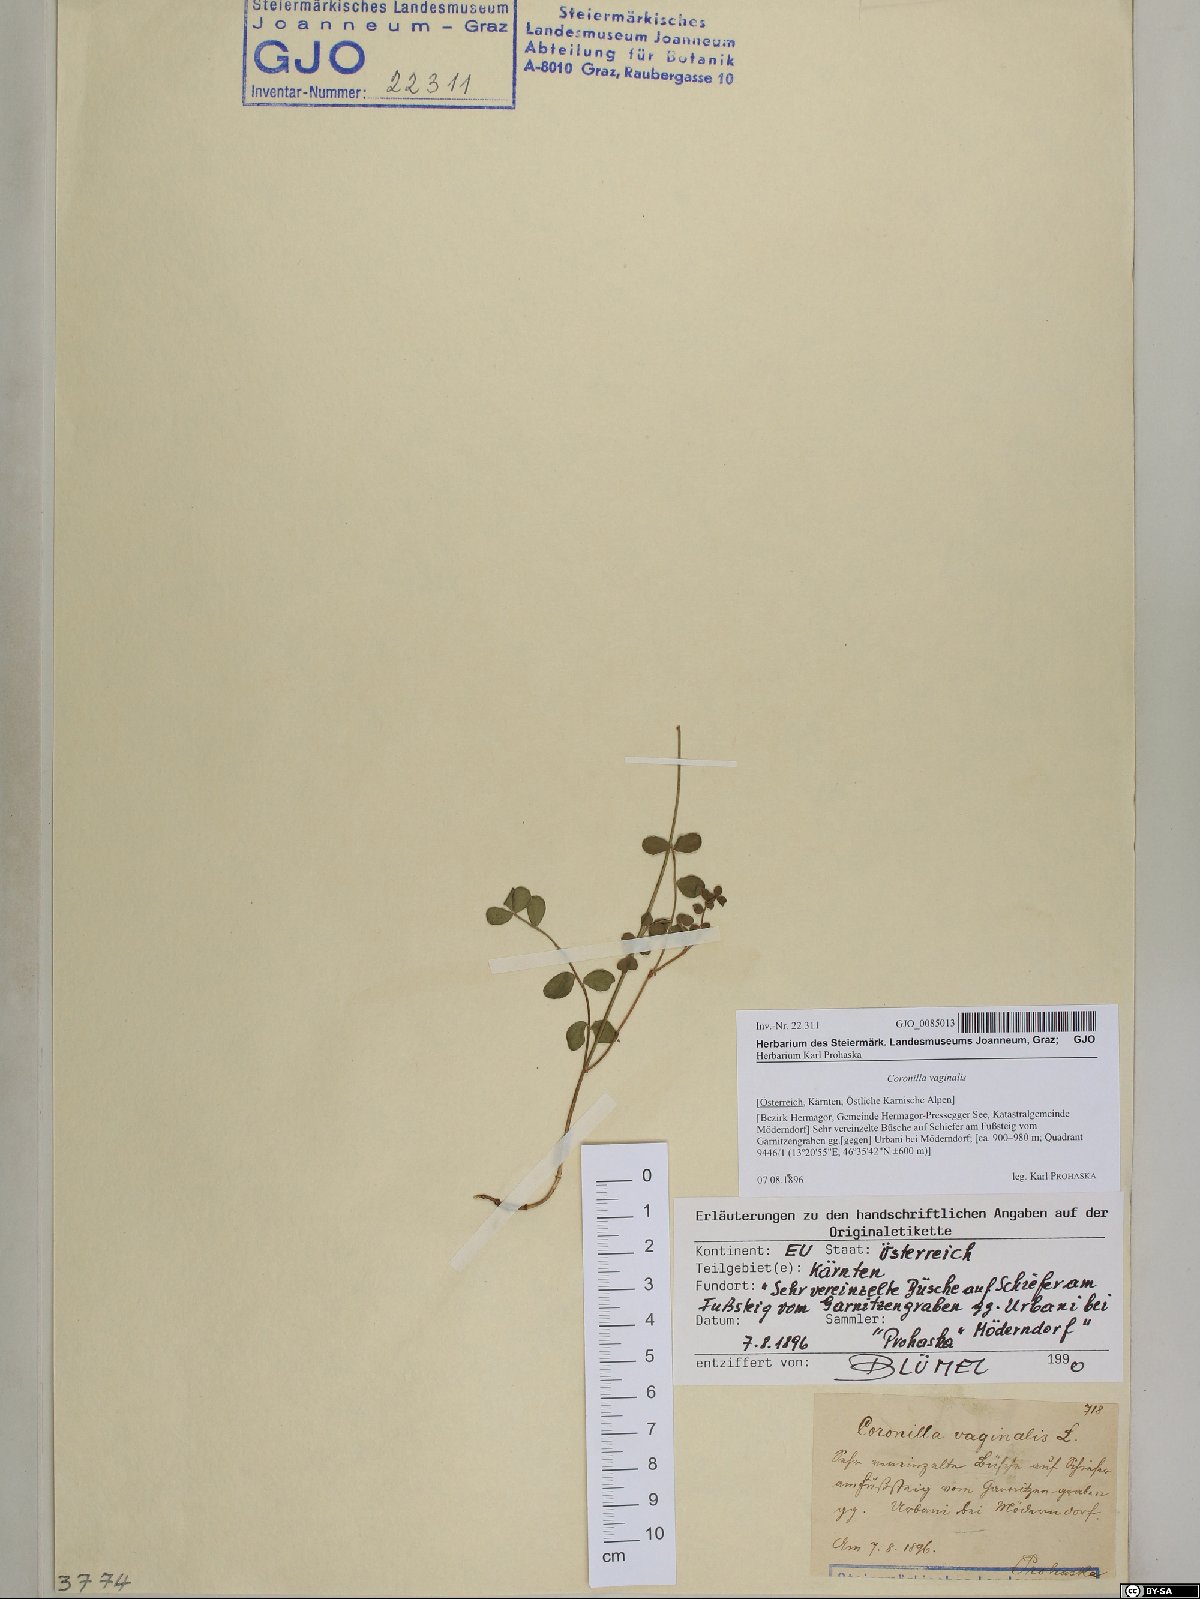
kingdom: Plantae
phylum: Tracheophyta
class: Magnoliopsida
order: Fabales
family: Fabaceae
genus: Coronilla
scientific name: Coronilla vaginalis
